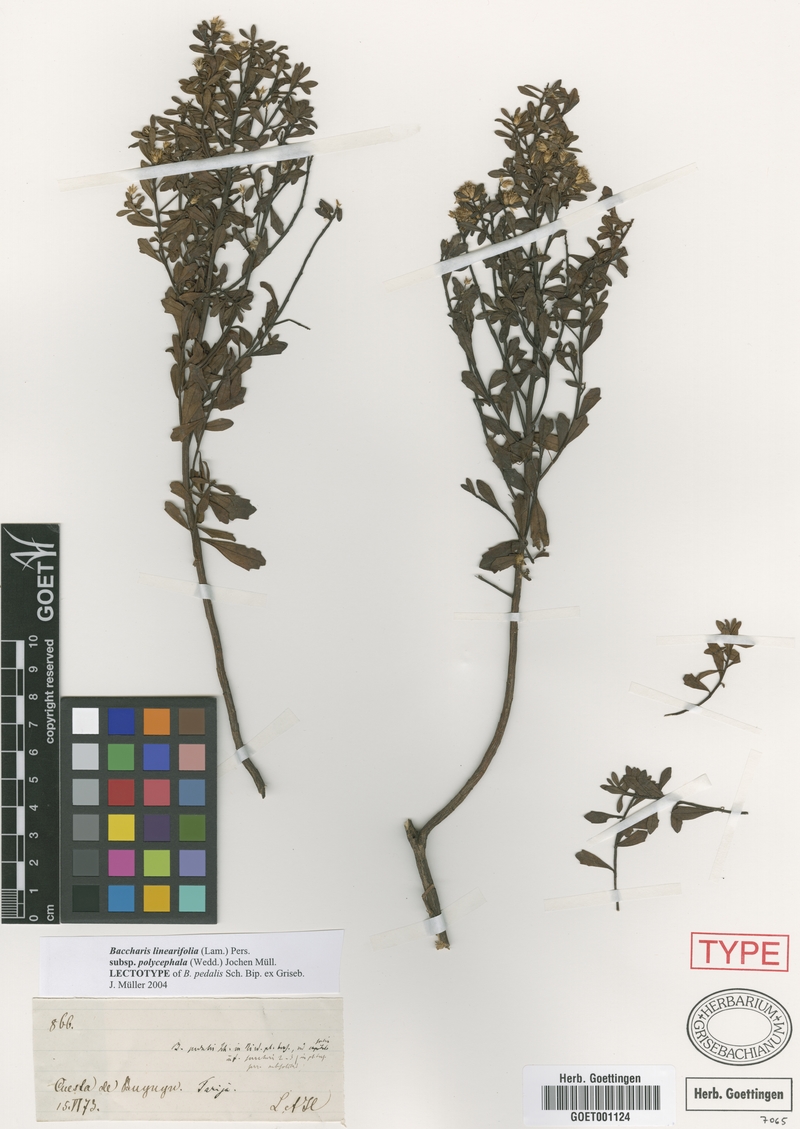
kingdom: Plantae
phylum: Tracheophyta
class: Magnoliopsida
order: Asterales
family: Asteraceae
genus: Baccharis
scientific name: Baccharis linearifolia
